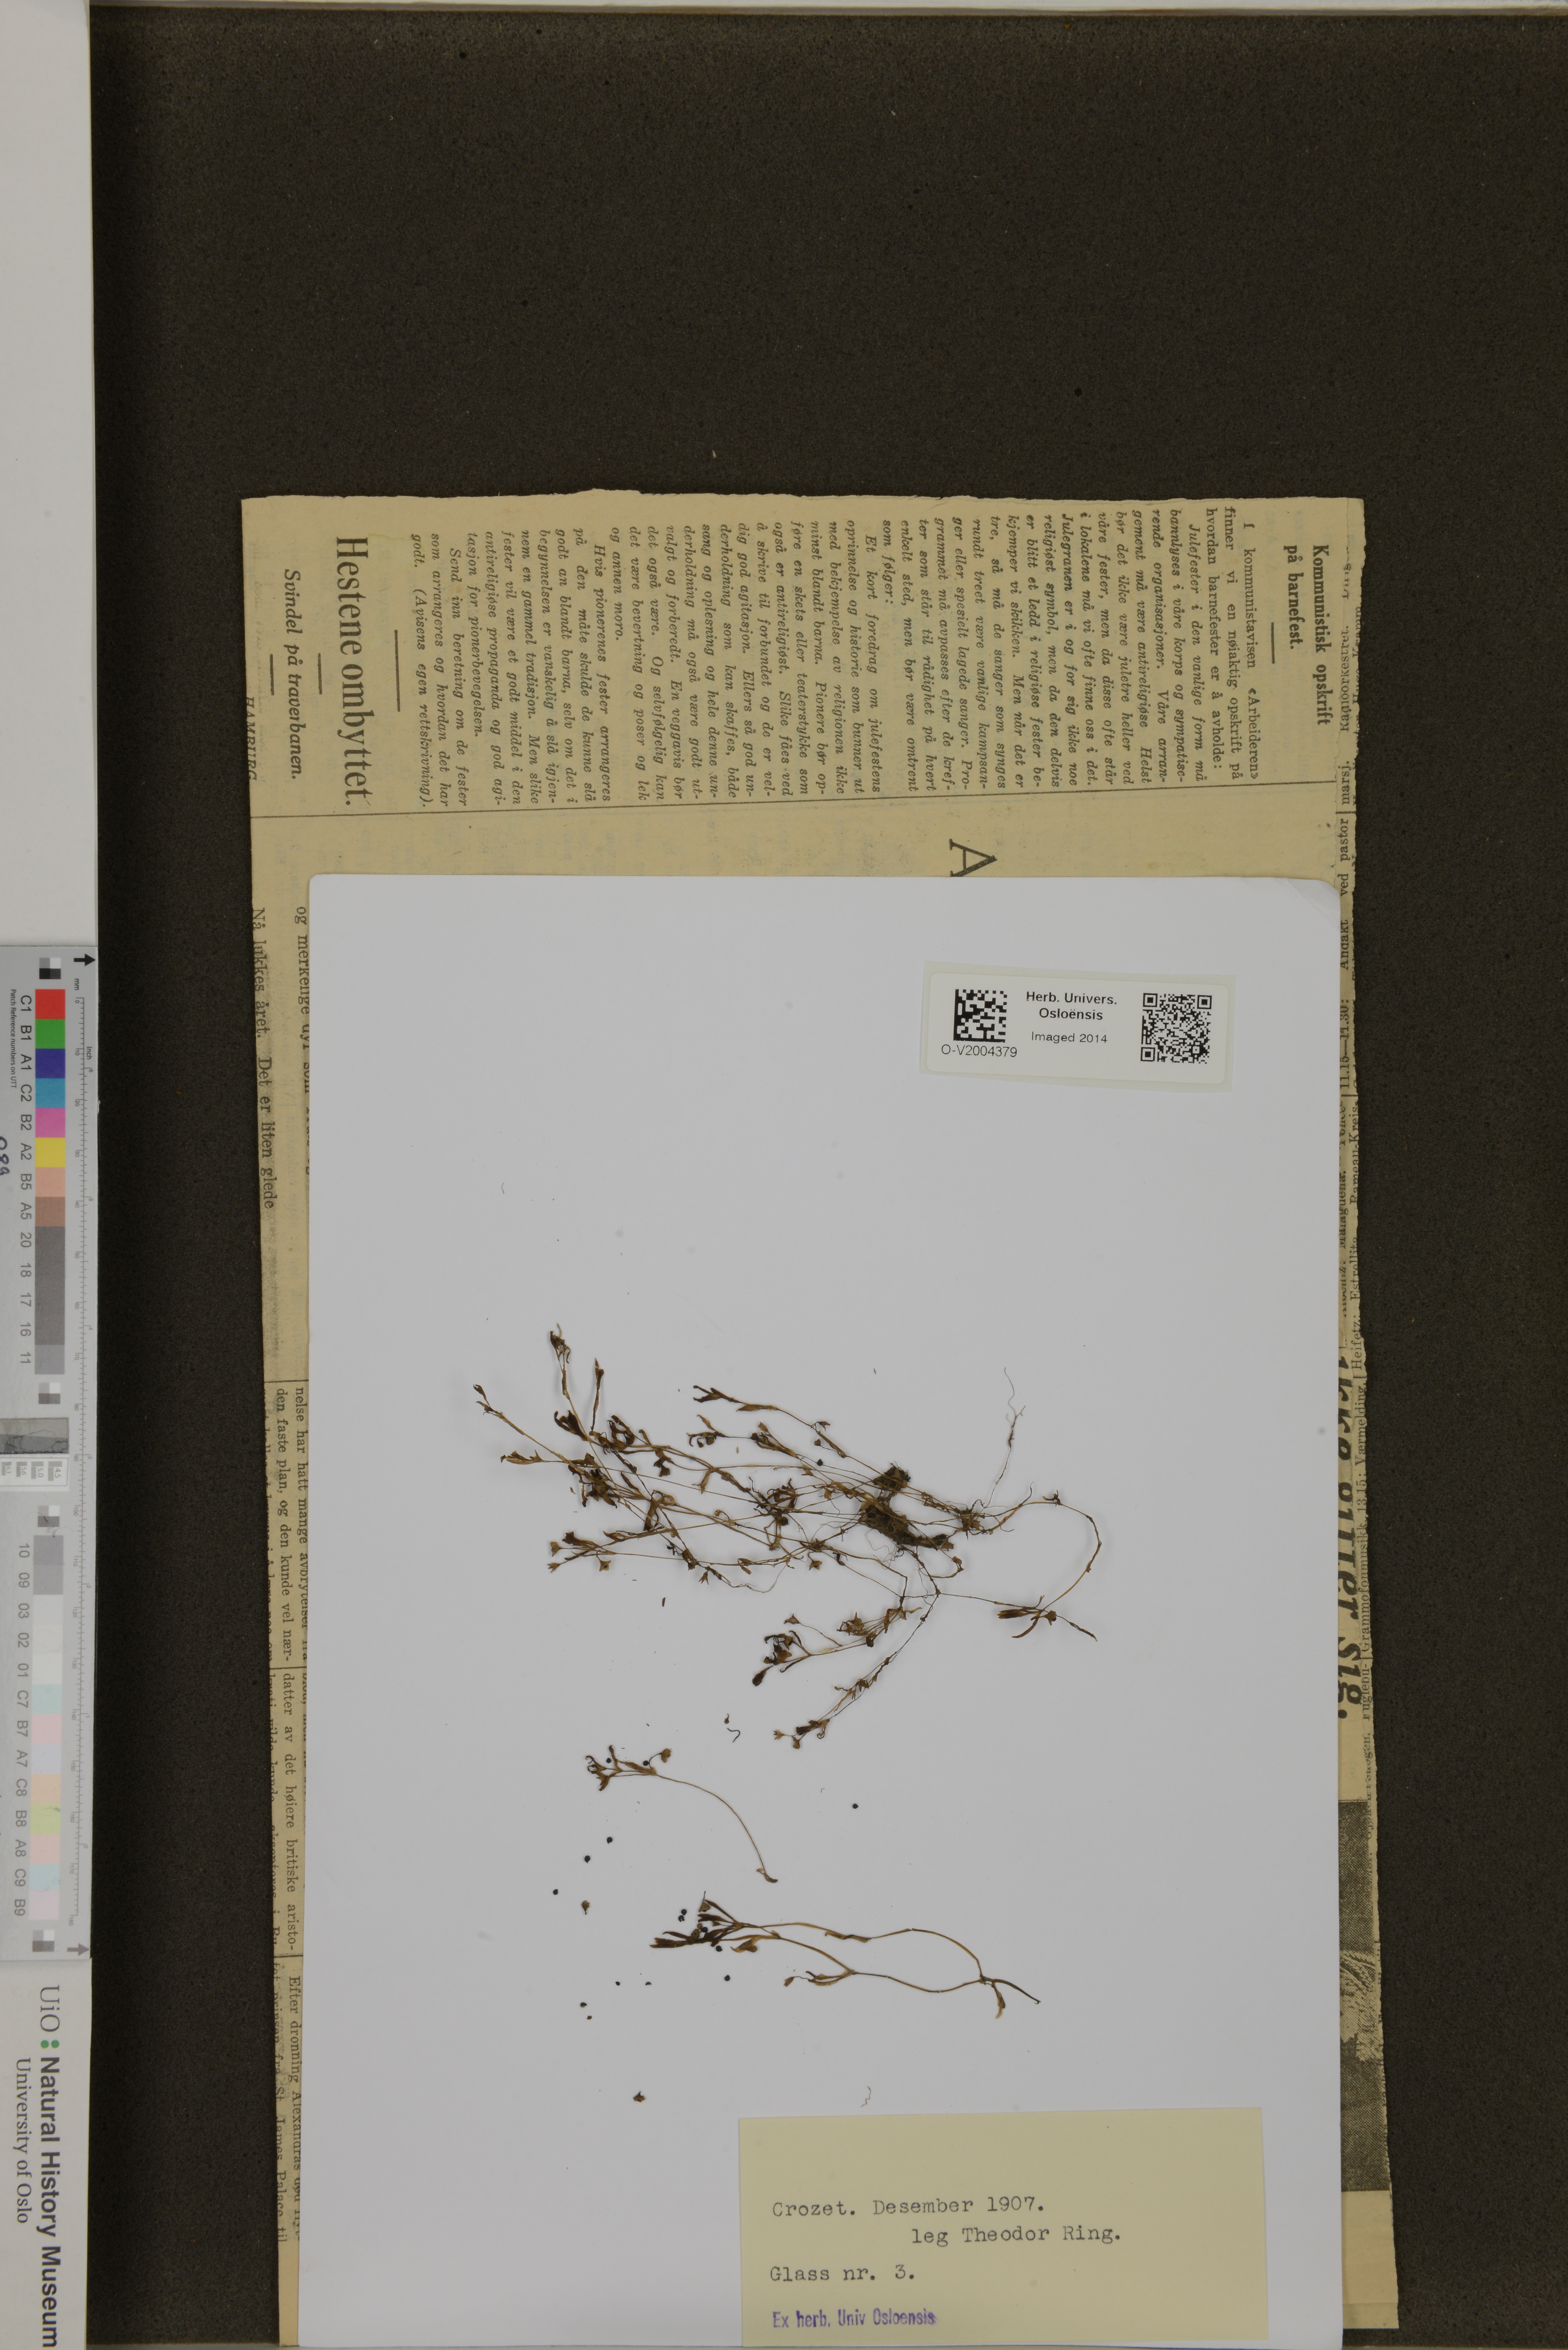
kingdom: Plantae
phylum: Tracheophyta
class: Magnoliopsida
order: Caryophyllales
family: Montiaceae
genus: Montia
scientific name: Montia
